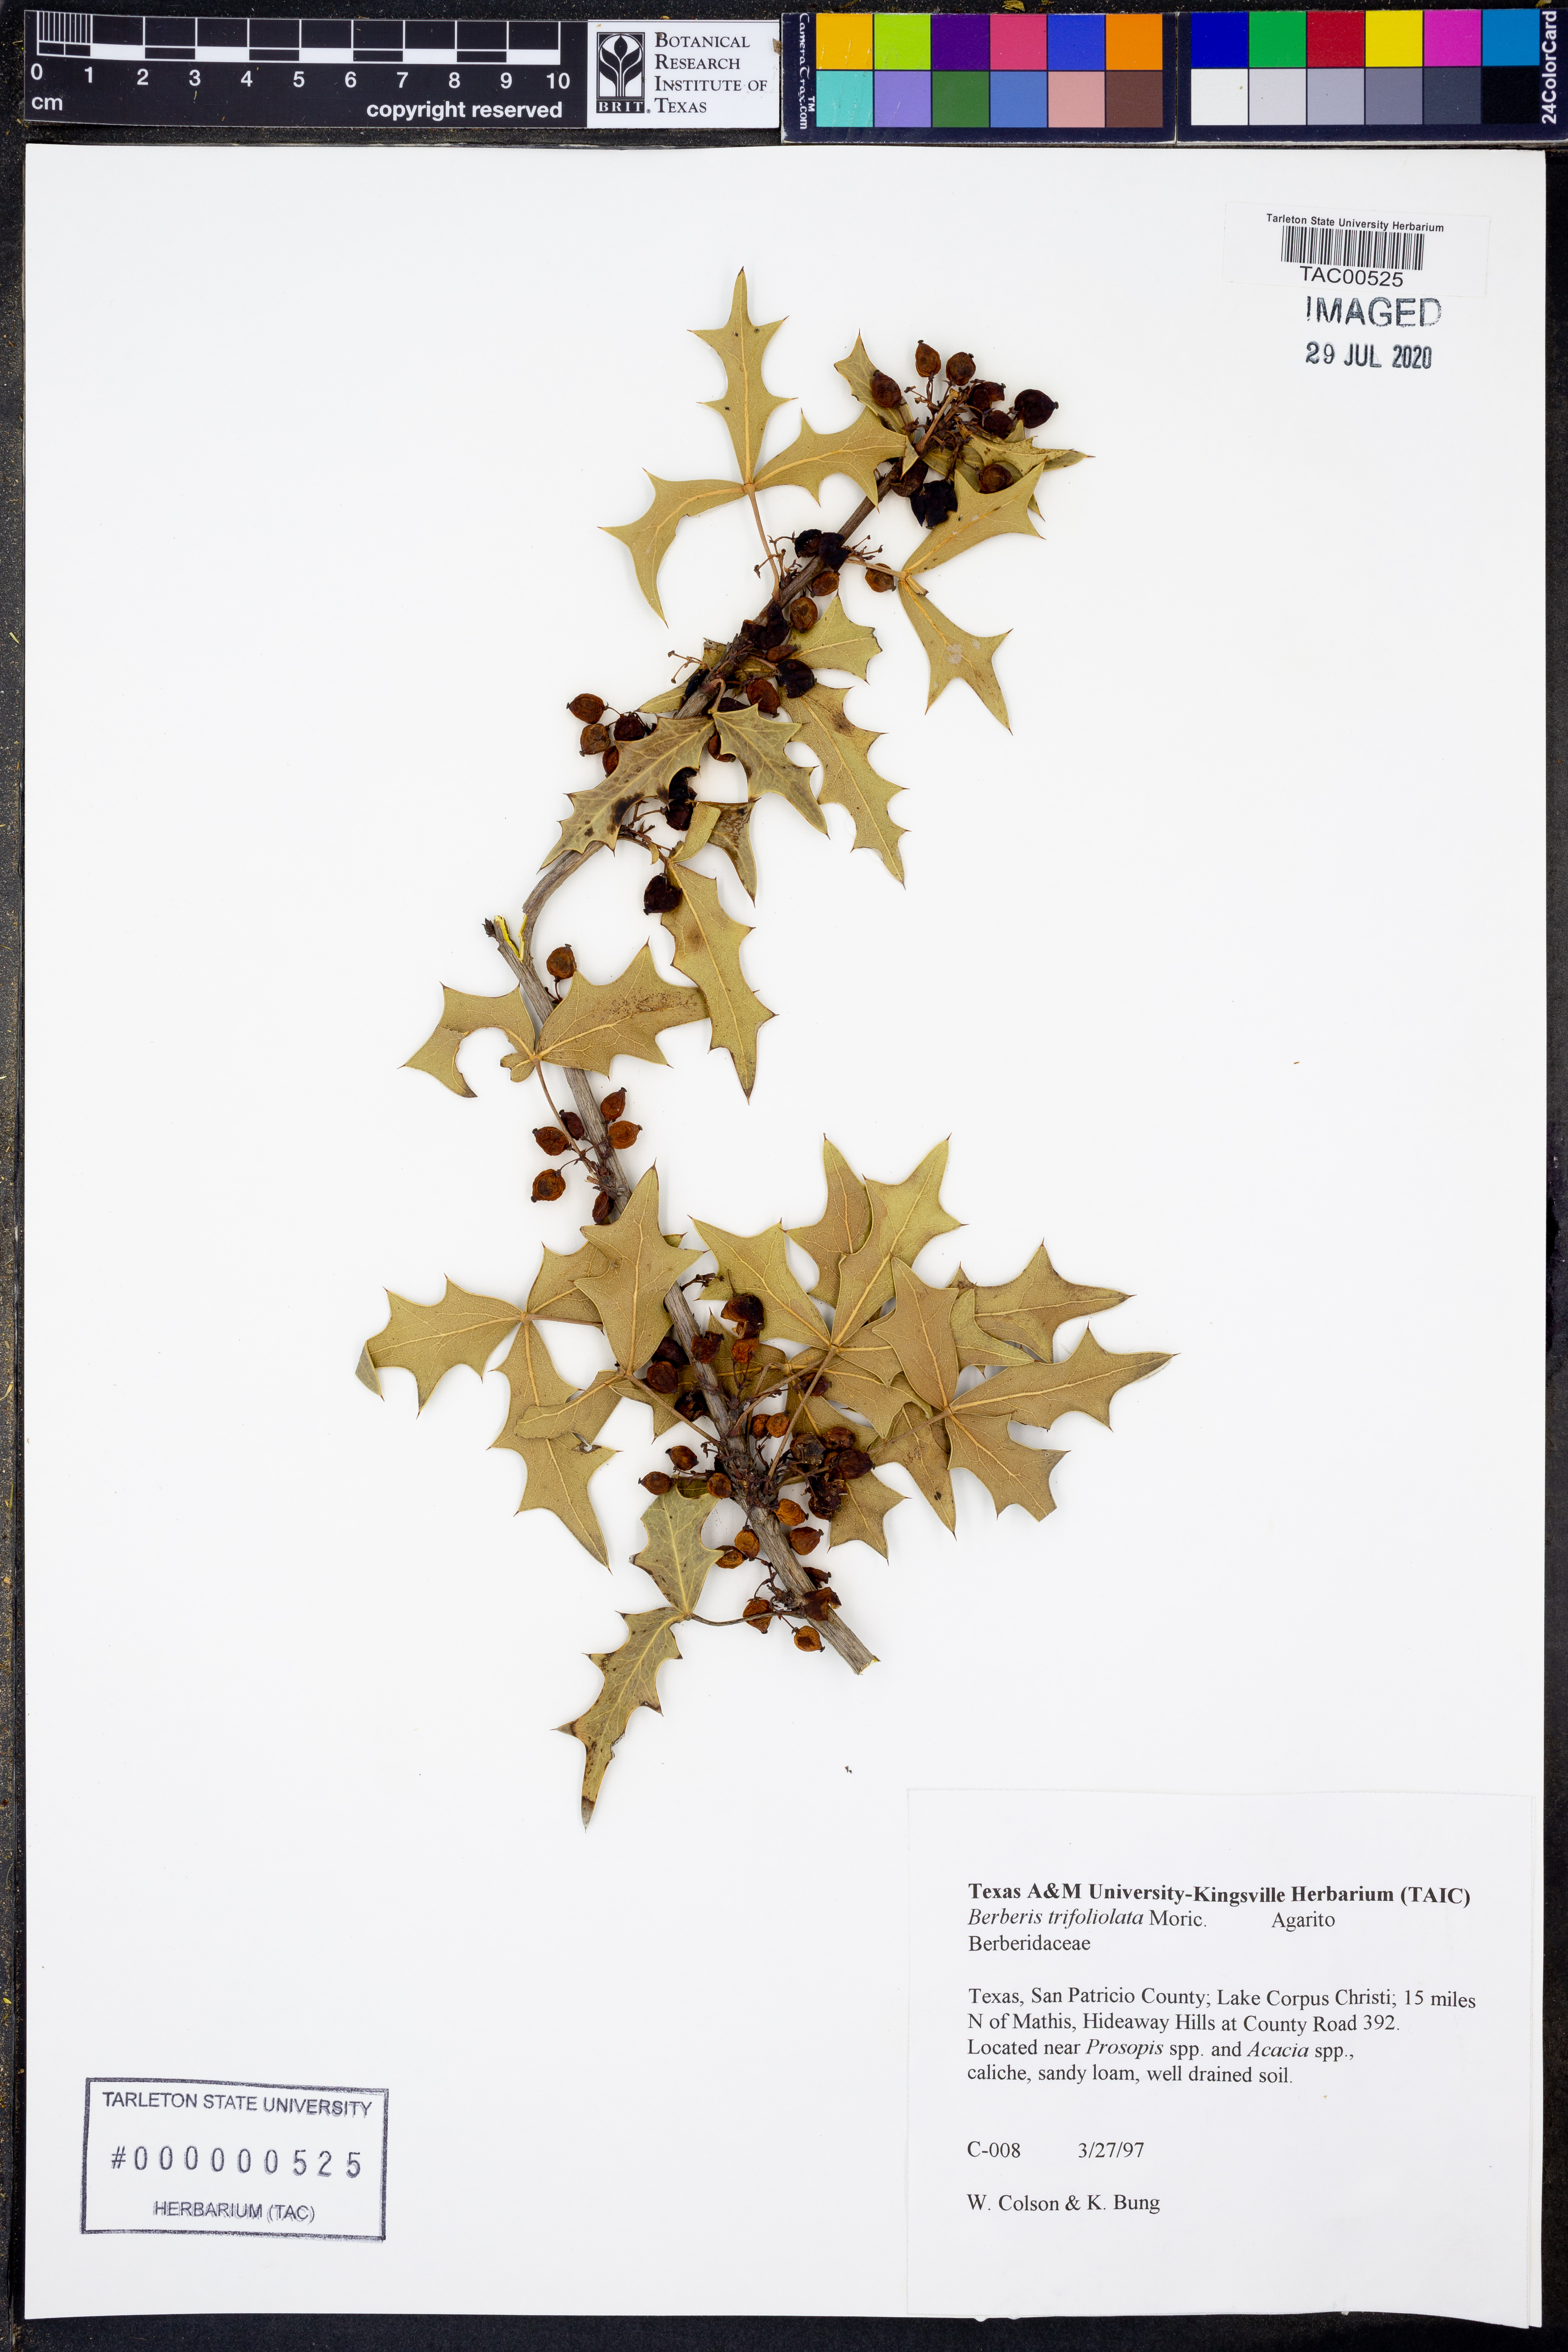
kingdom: Plantae
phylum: Tracheophyta
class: Magnoliopsida
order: Ranunculales
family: Berberidaceae
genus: Alloberberis
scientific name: Alloberberis trifoliolata
